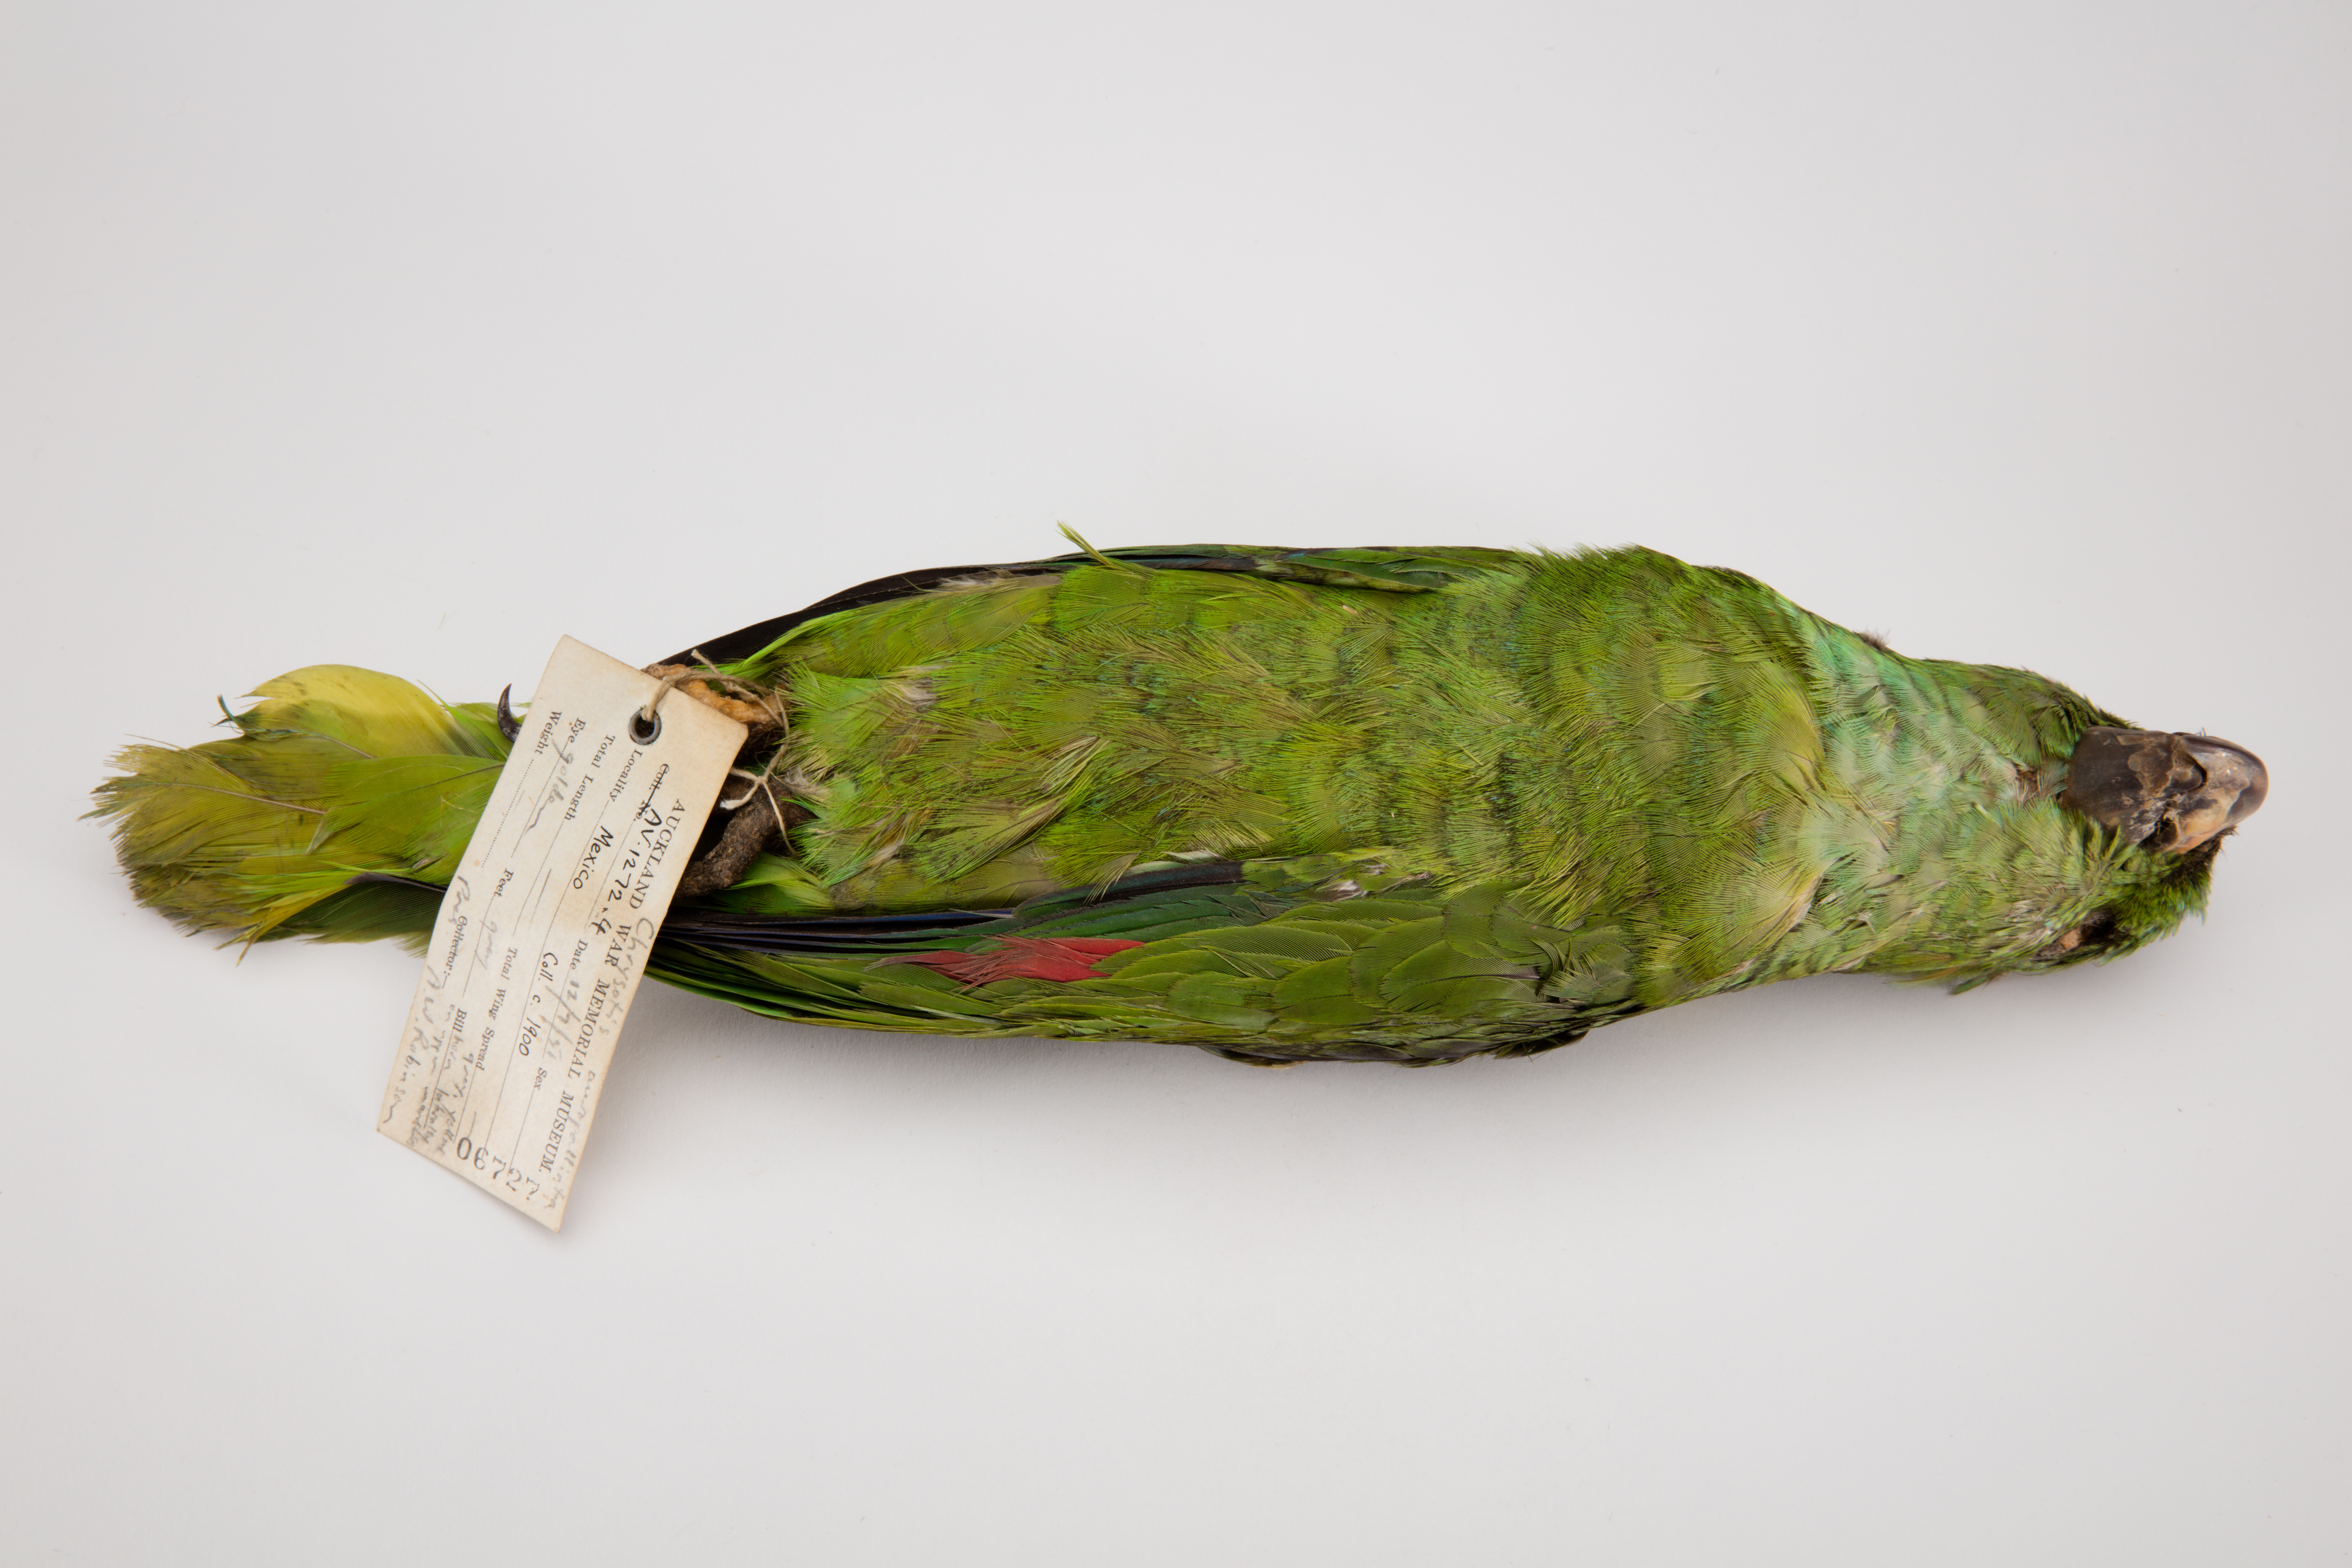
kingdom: Animalia
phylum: Chordata
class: Aves
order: Psittaciformes
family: Psittacidae
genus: Amazona
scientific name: Amazona auropalliata
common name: Yellow-naped amazon
